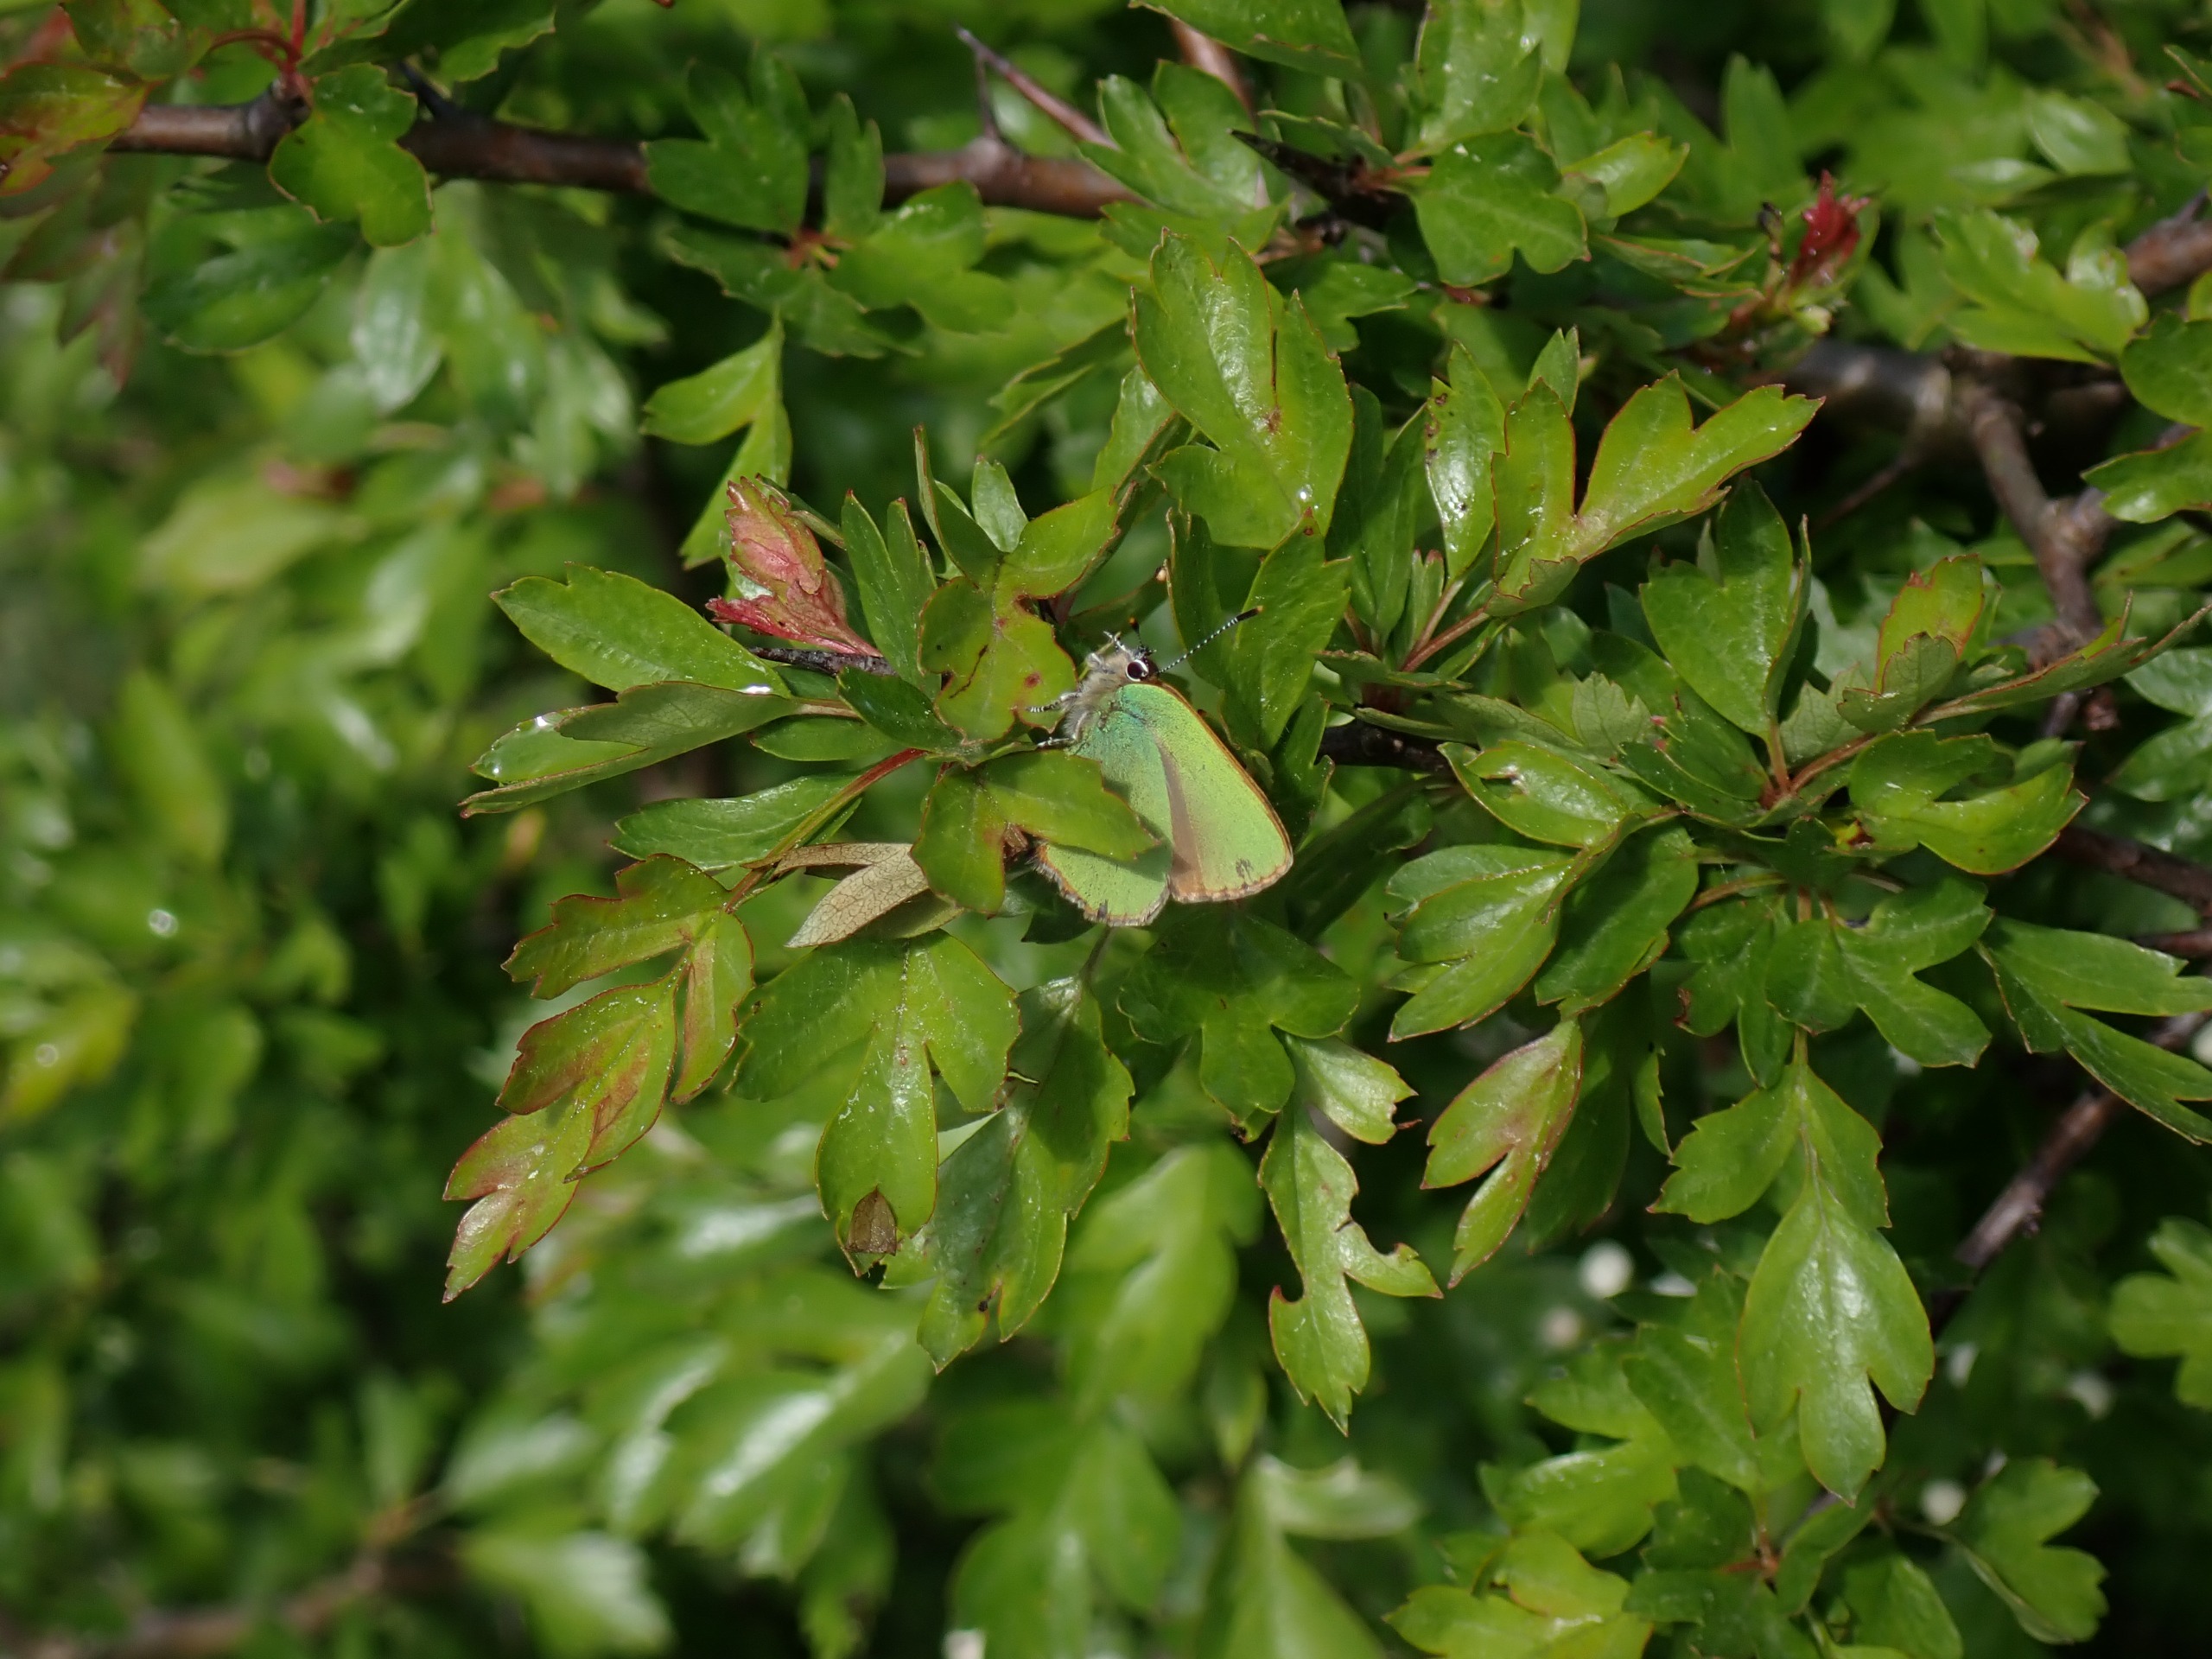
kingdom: Animalia
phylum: Arthropoda
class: Insecta
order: Lepidoptera
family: Lycaenidae
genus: Callophrys
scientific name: Callophrys rubi
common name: Grøn busksommerfugl
